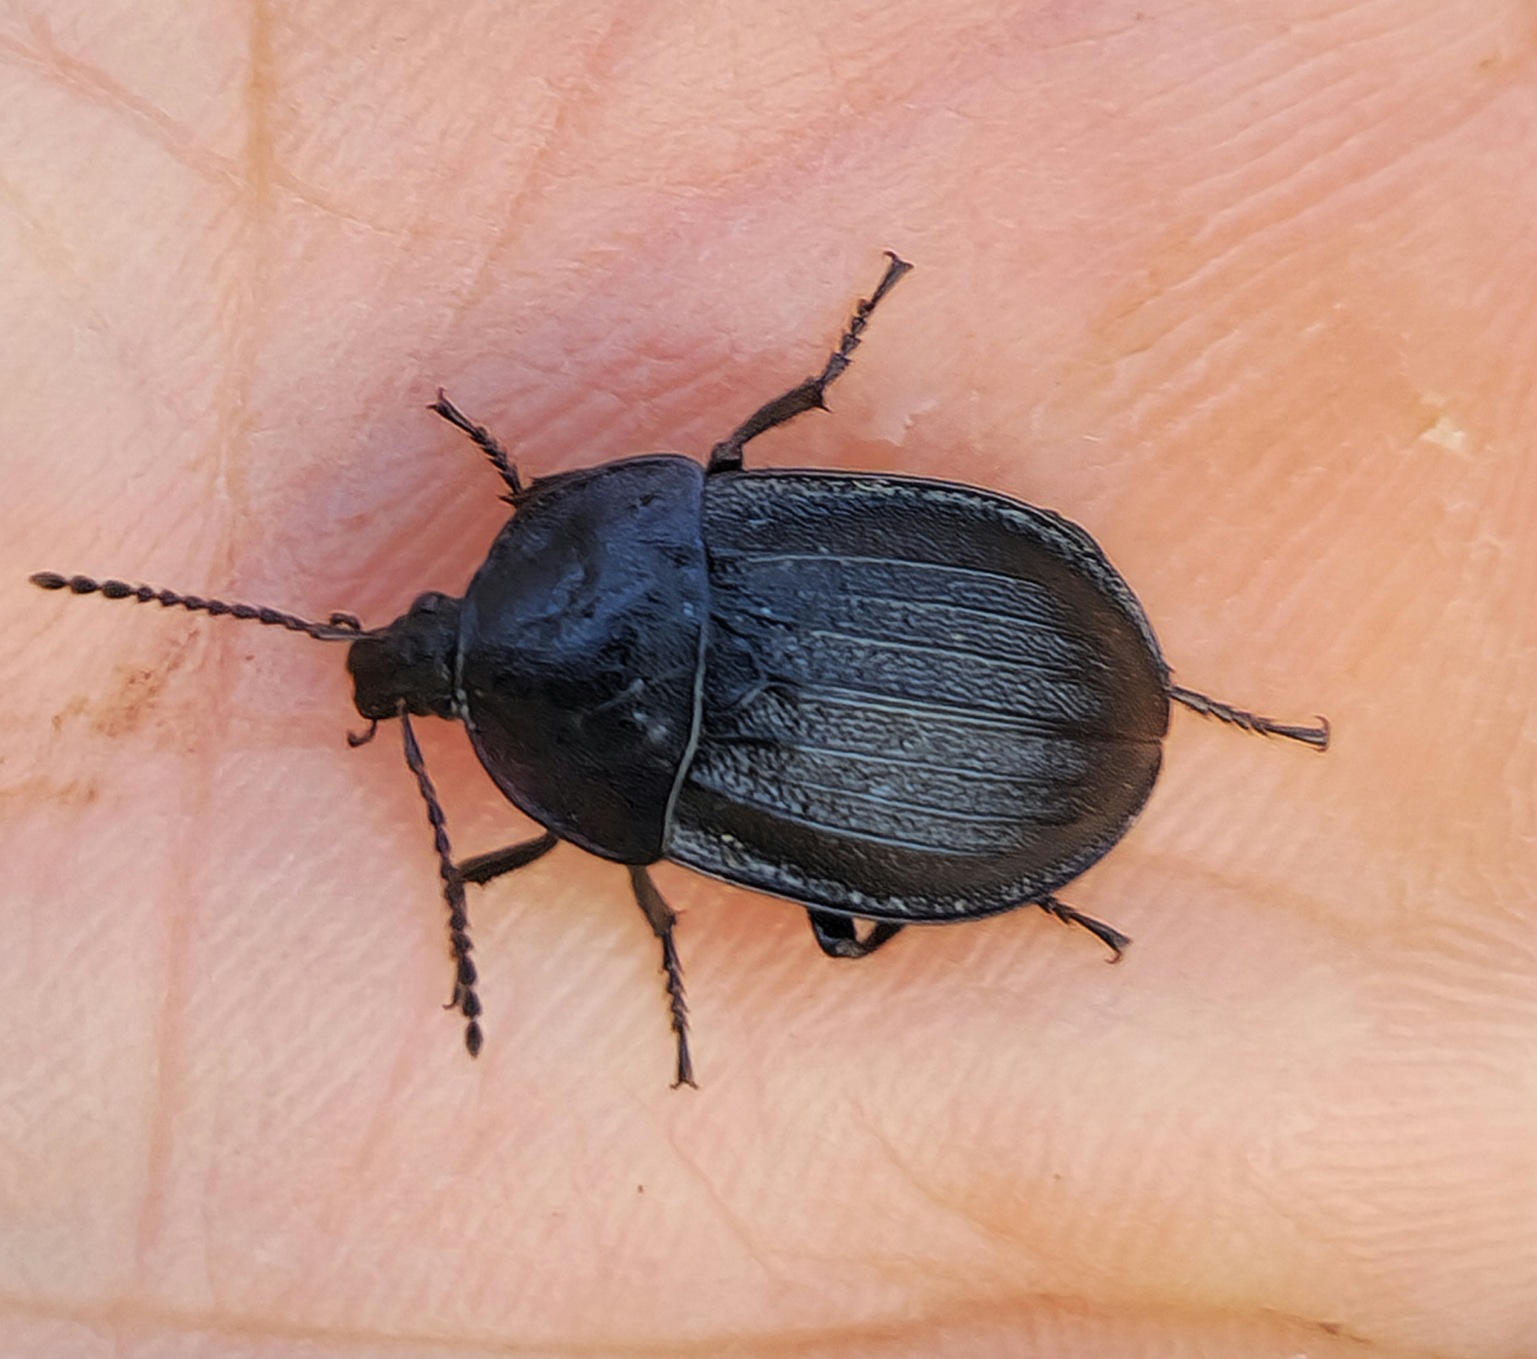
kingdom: Animalia
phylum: Arthropoda
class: Insecta
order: Coleoptera
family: Staphylinidae
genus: Silpha
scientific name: Silpha atrata
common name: Snegleådselbille
